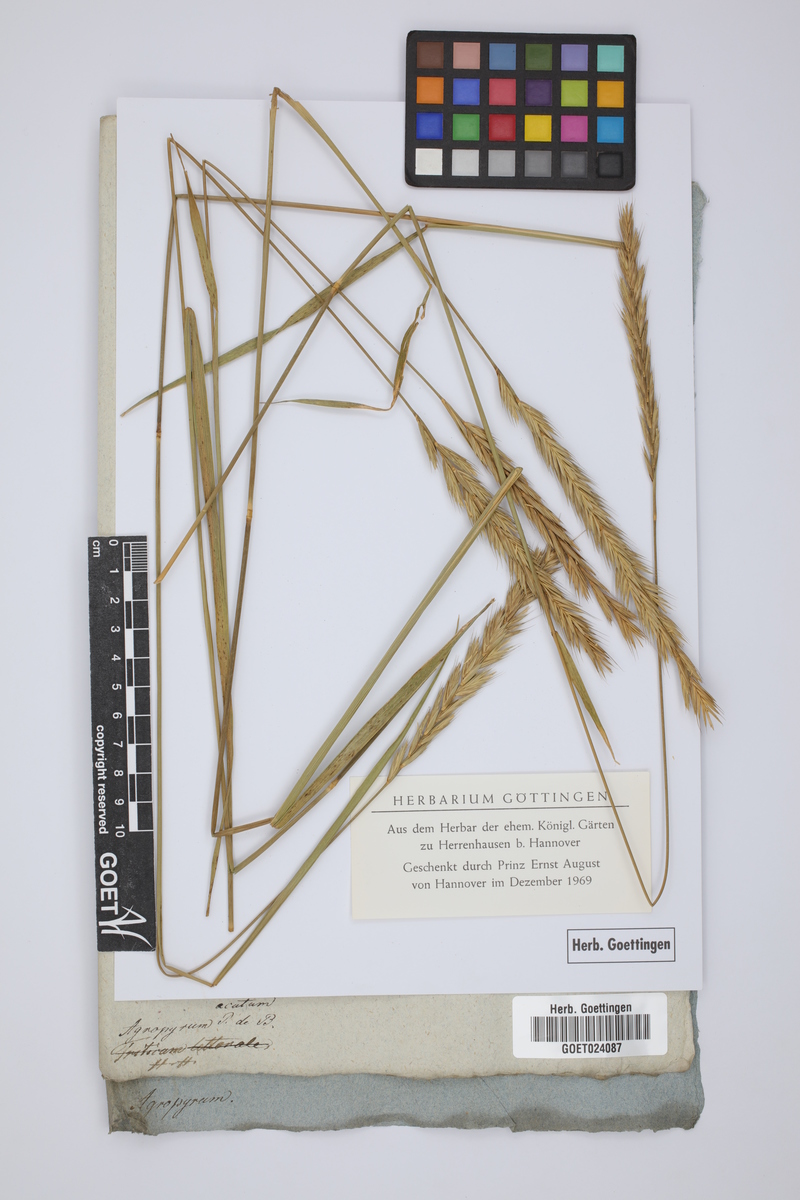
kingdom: Plantae
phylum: Tracheophyta
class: Liliopsida
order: Poales
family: Poaceae
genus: Thinopyrum
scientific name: Thinopyrum acutum
